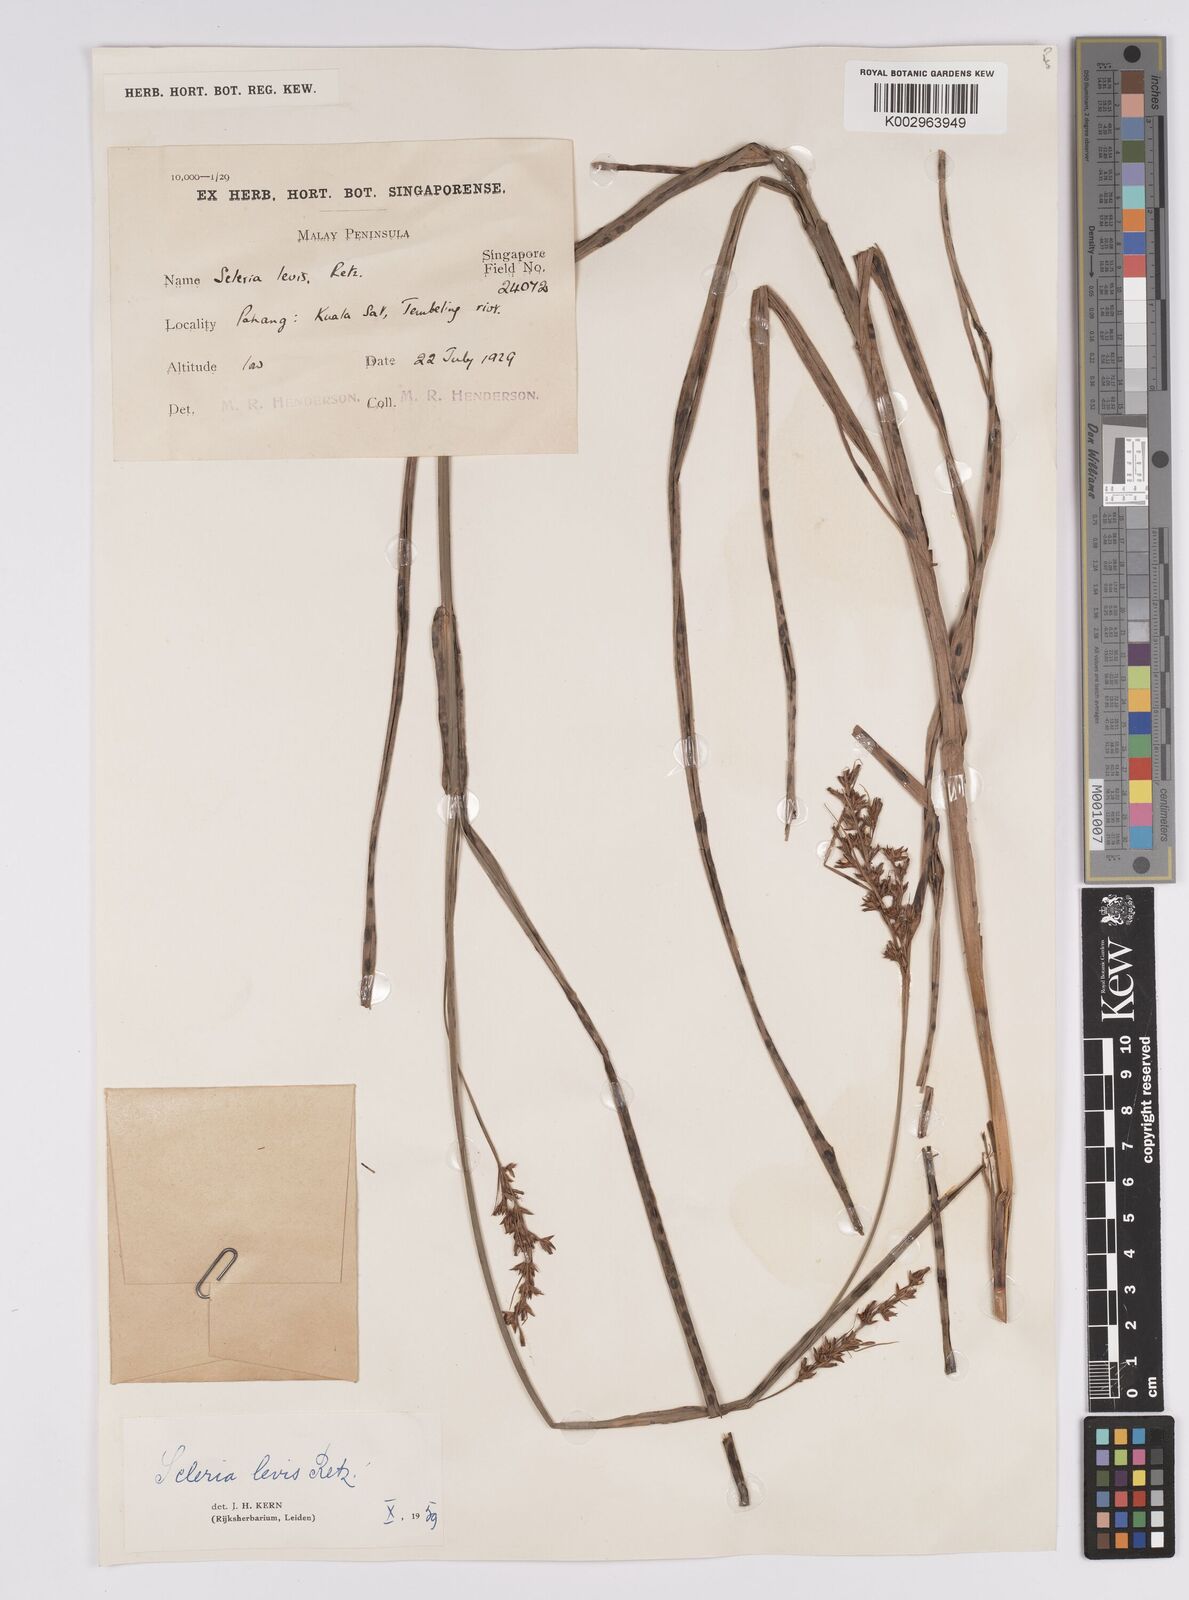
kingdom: Plantae
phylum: Tracheophyta
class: Liliopsida
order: Poales
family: Cyperaceae
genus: Scleria
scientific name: Scleria levis
